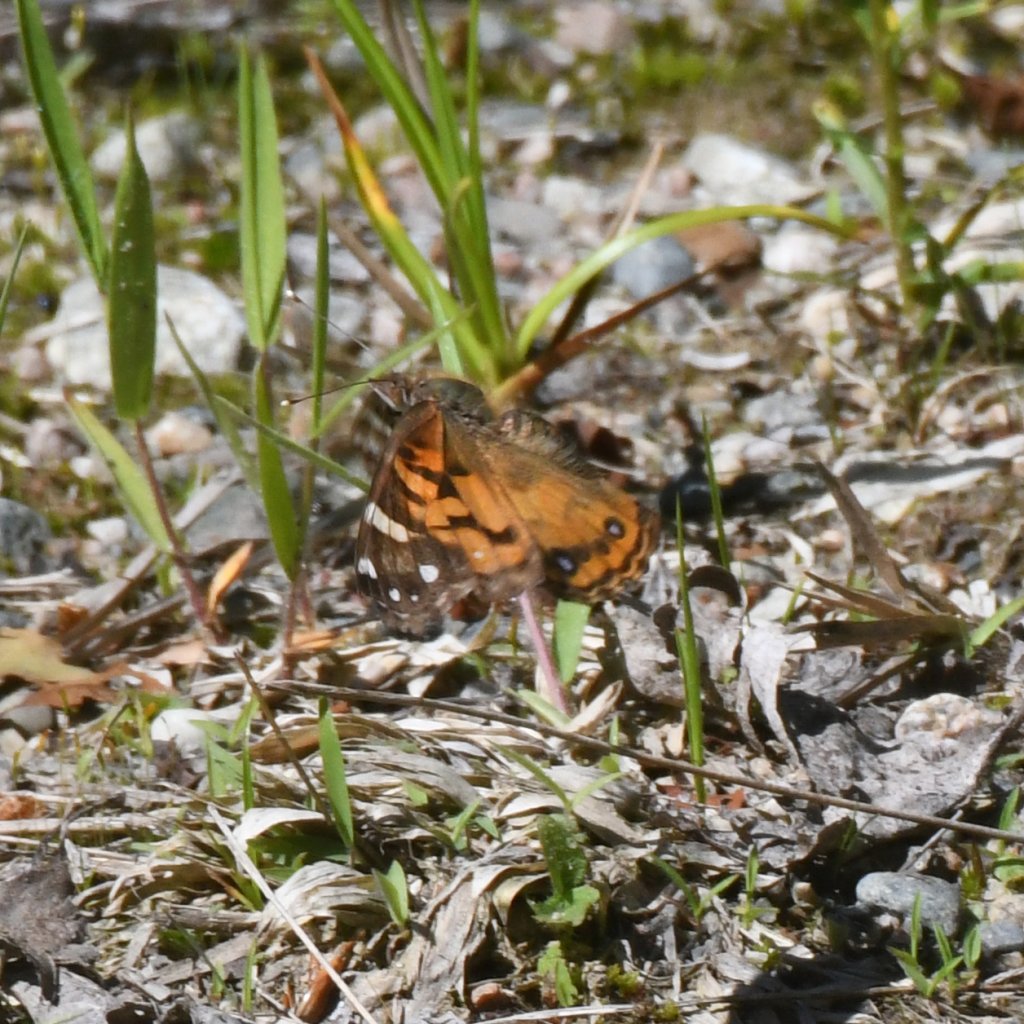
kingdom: Animalia
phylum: Arthropoda
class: Insecta
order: Lepidoptera
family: Nymphalidae
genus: Vanessa
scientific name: Vanessa virginiensis
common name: American Lady
